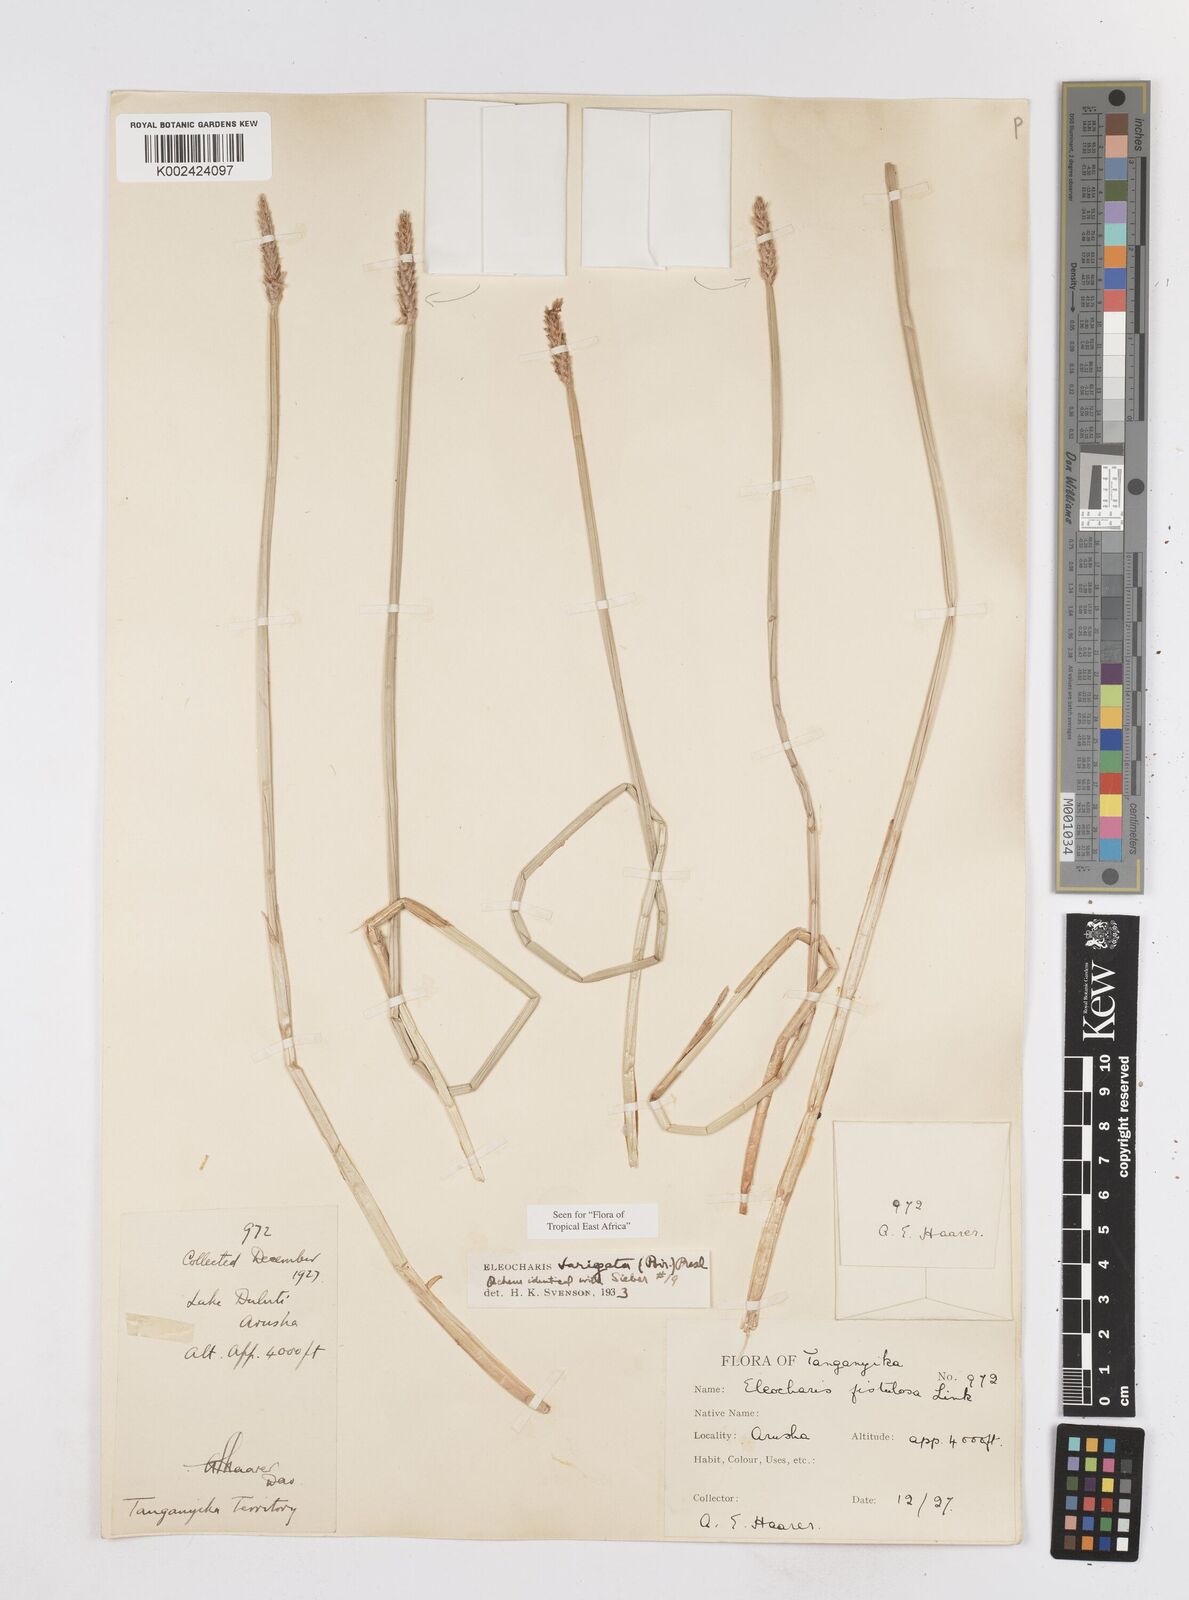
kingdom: Plantae
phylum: Tracheophyta
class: Liliopsida
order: Poales
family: Cyperaceae
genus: Eleocharis
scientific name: Eleocharis variegata
